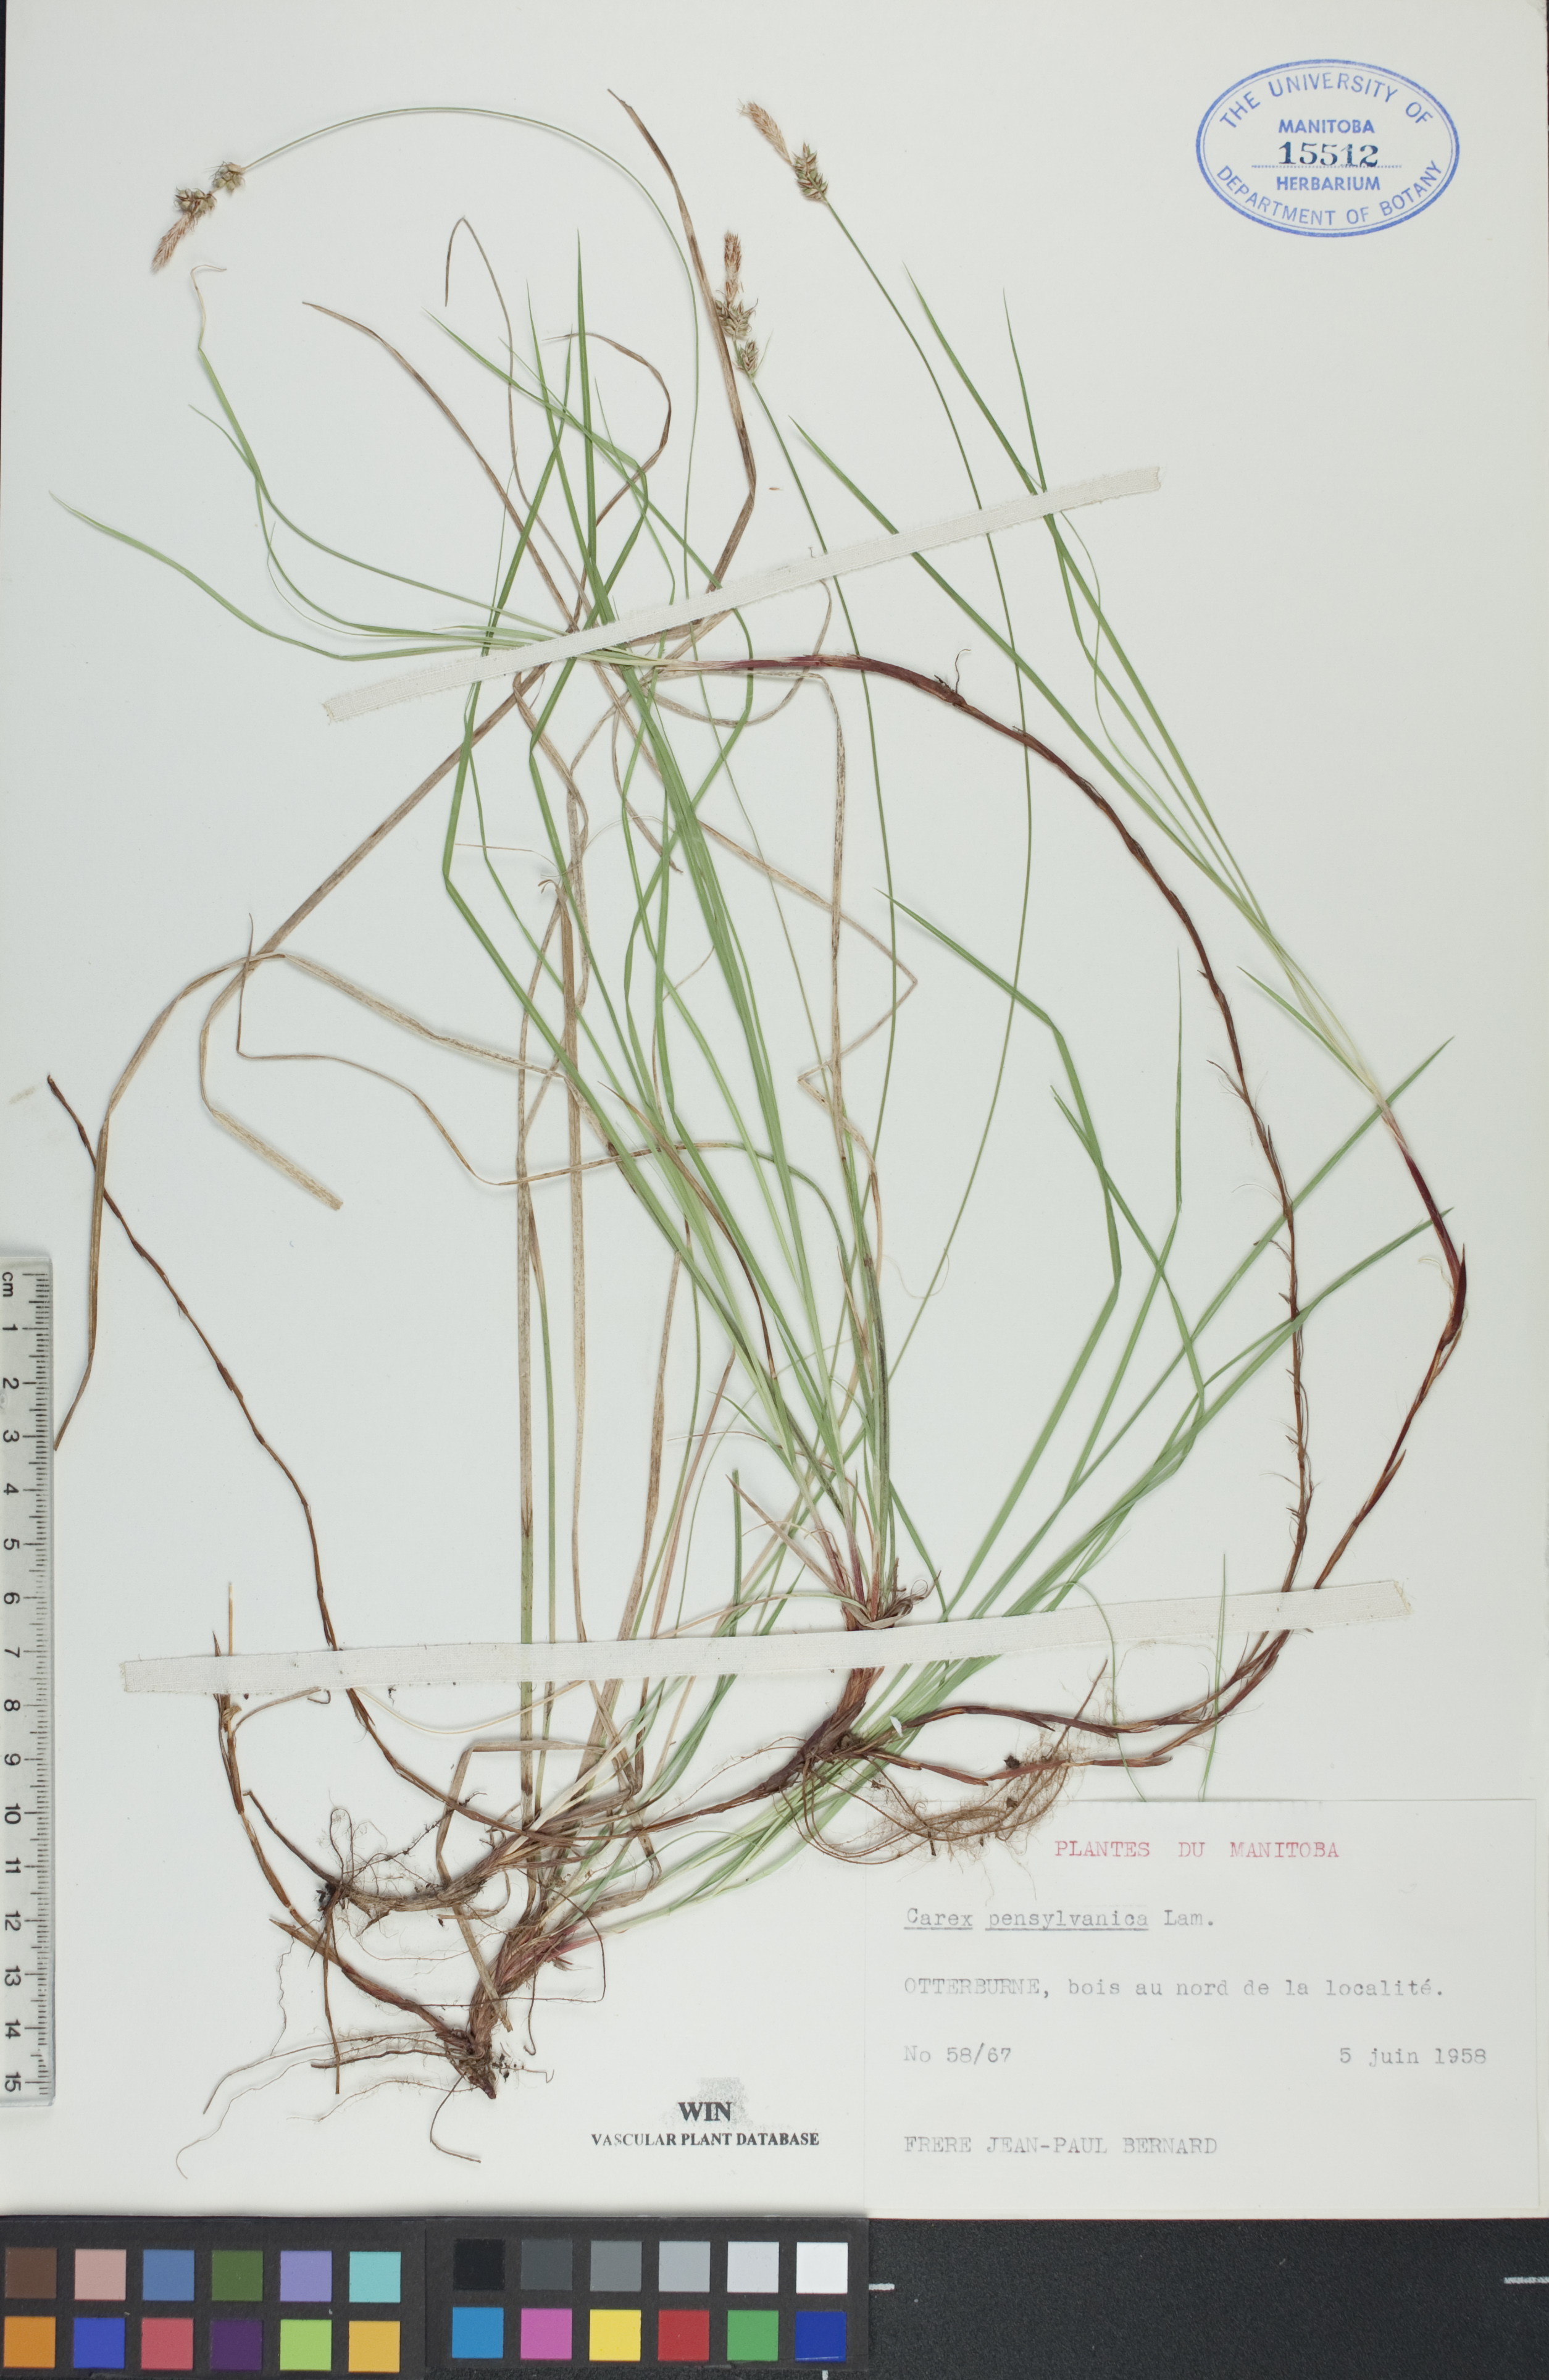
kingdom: Plantae
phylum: Tracheophyta
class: Liliopsida
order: Poales
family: Cyperaceae
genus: Carex
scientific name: Carex pensylvanica
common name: Common oak sedge
